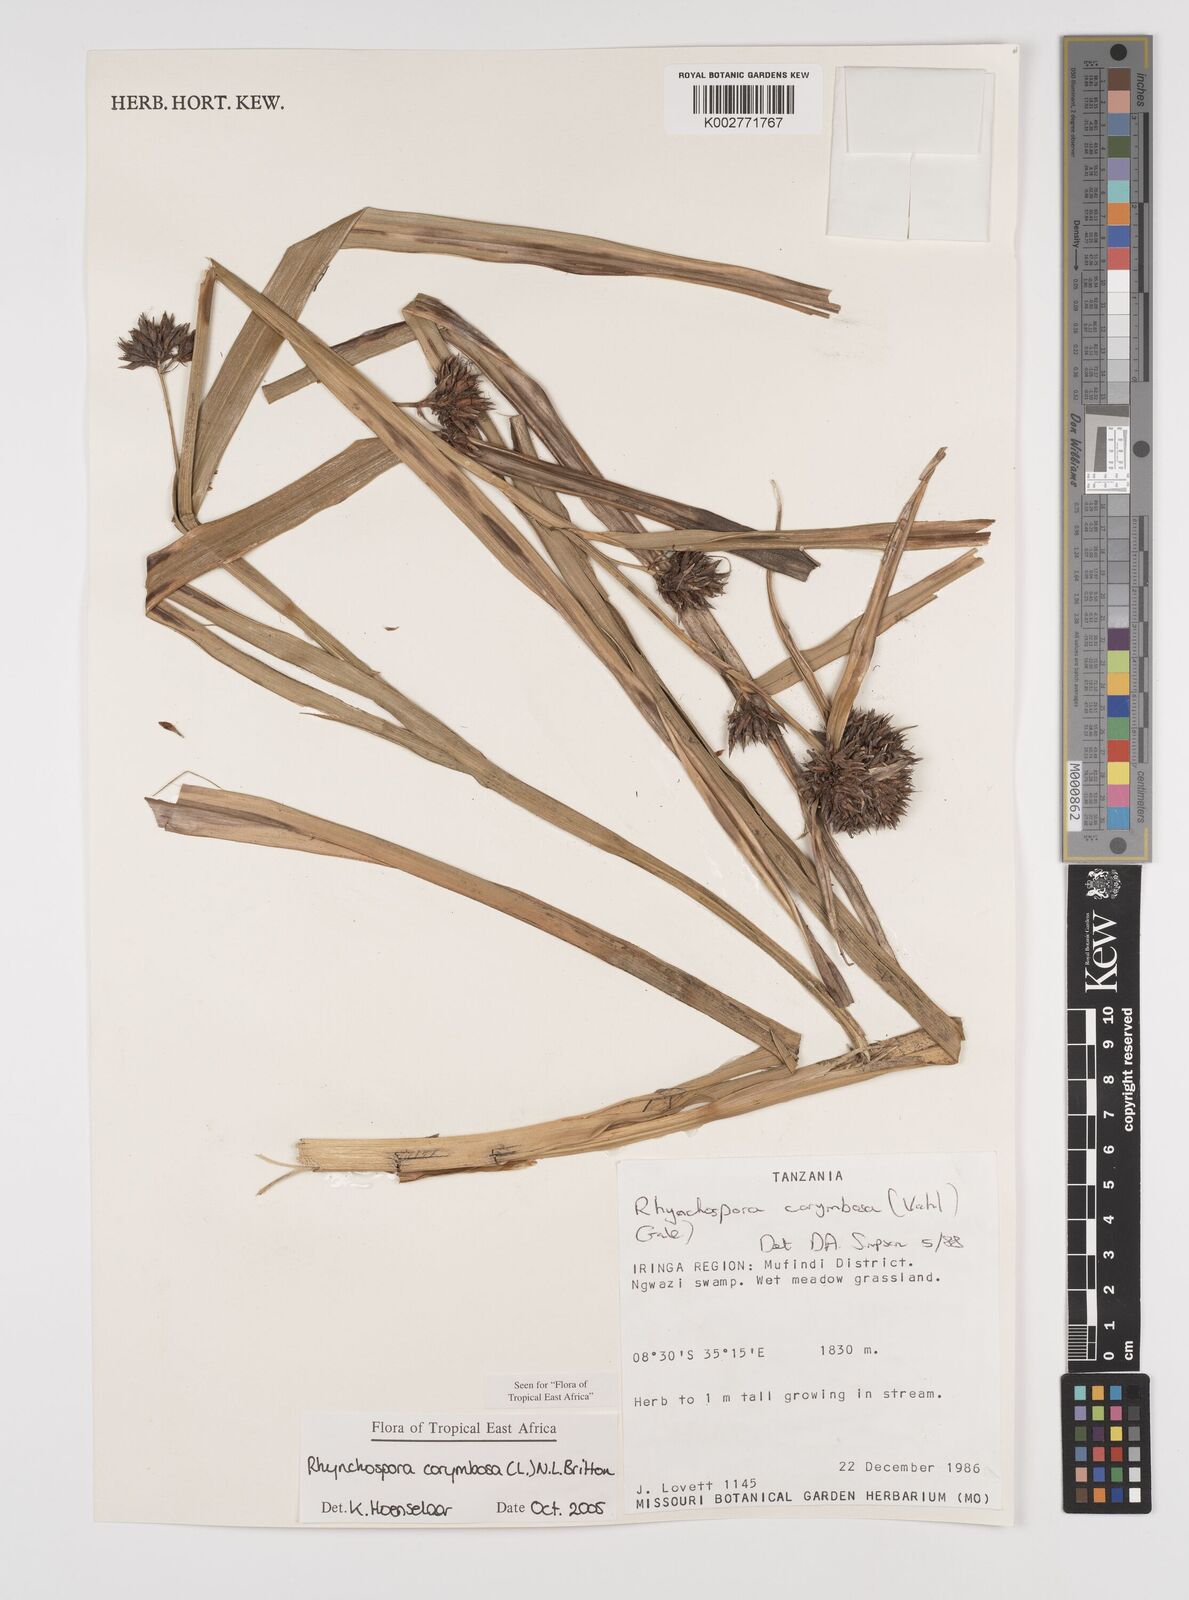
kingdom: Plantae
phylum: Tracheophyta
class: Liliopsida
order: Poales
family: Cyperaceae
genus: Rhynchospora
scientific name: Rhynchospora corymbosa
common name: Golden beak sedge
